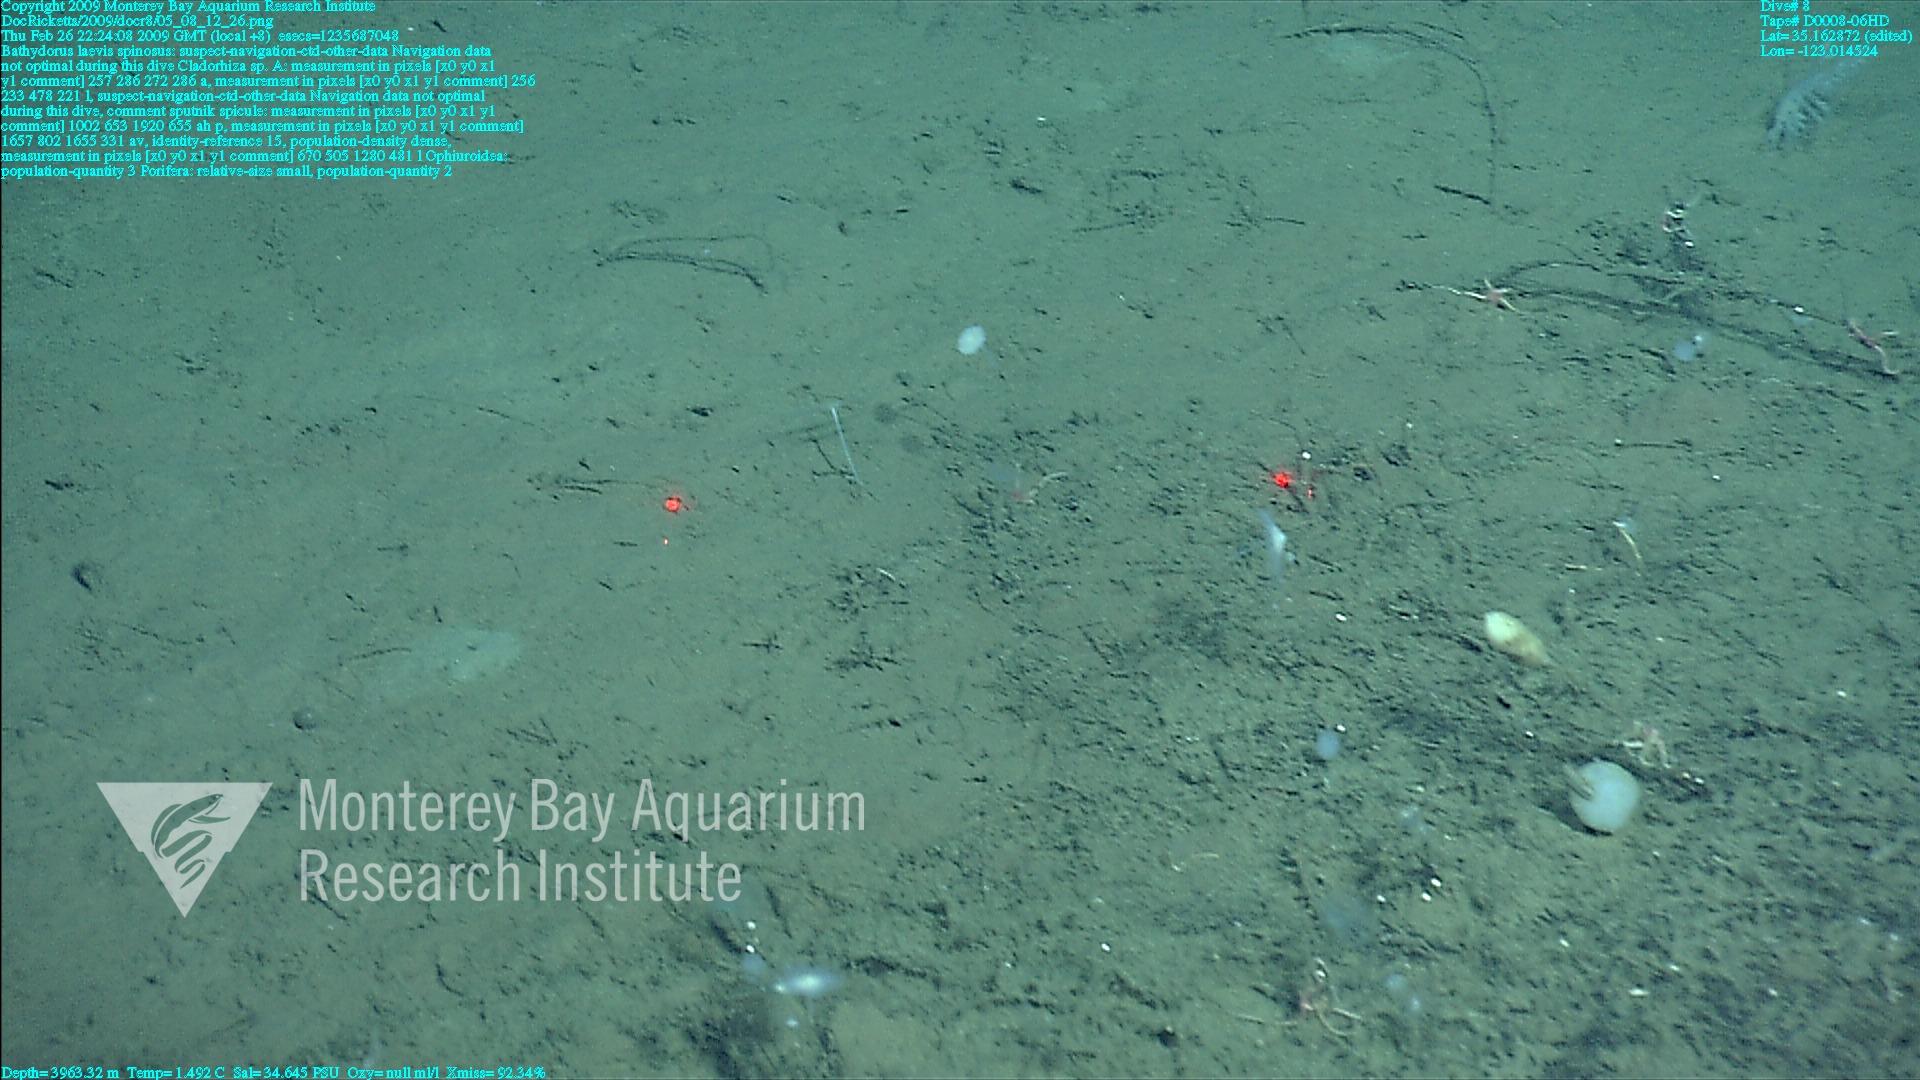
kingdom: Animalia
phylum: Porifera
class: Hexactinellida
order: Lyssacinosida
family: Rossellidae
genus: Bathydorus
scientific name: Bathydorus spinosus
